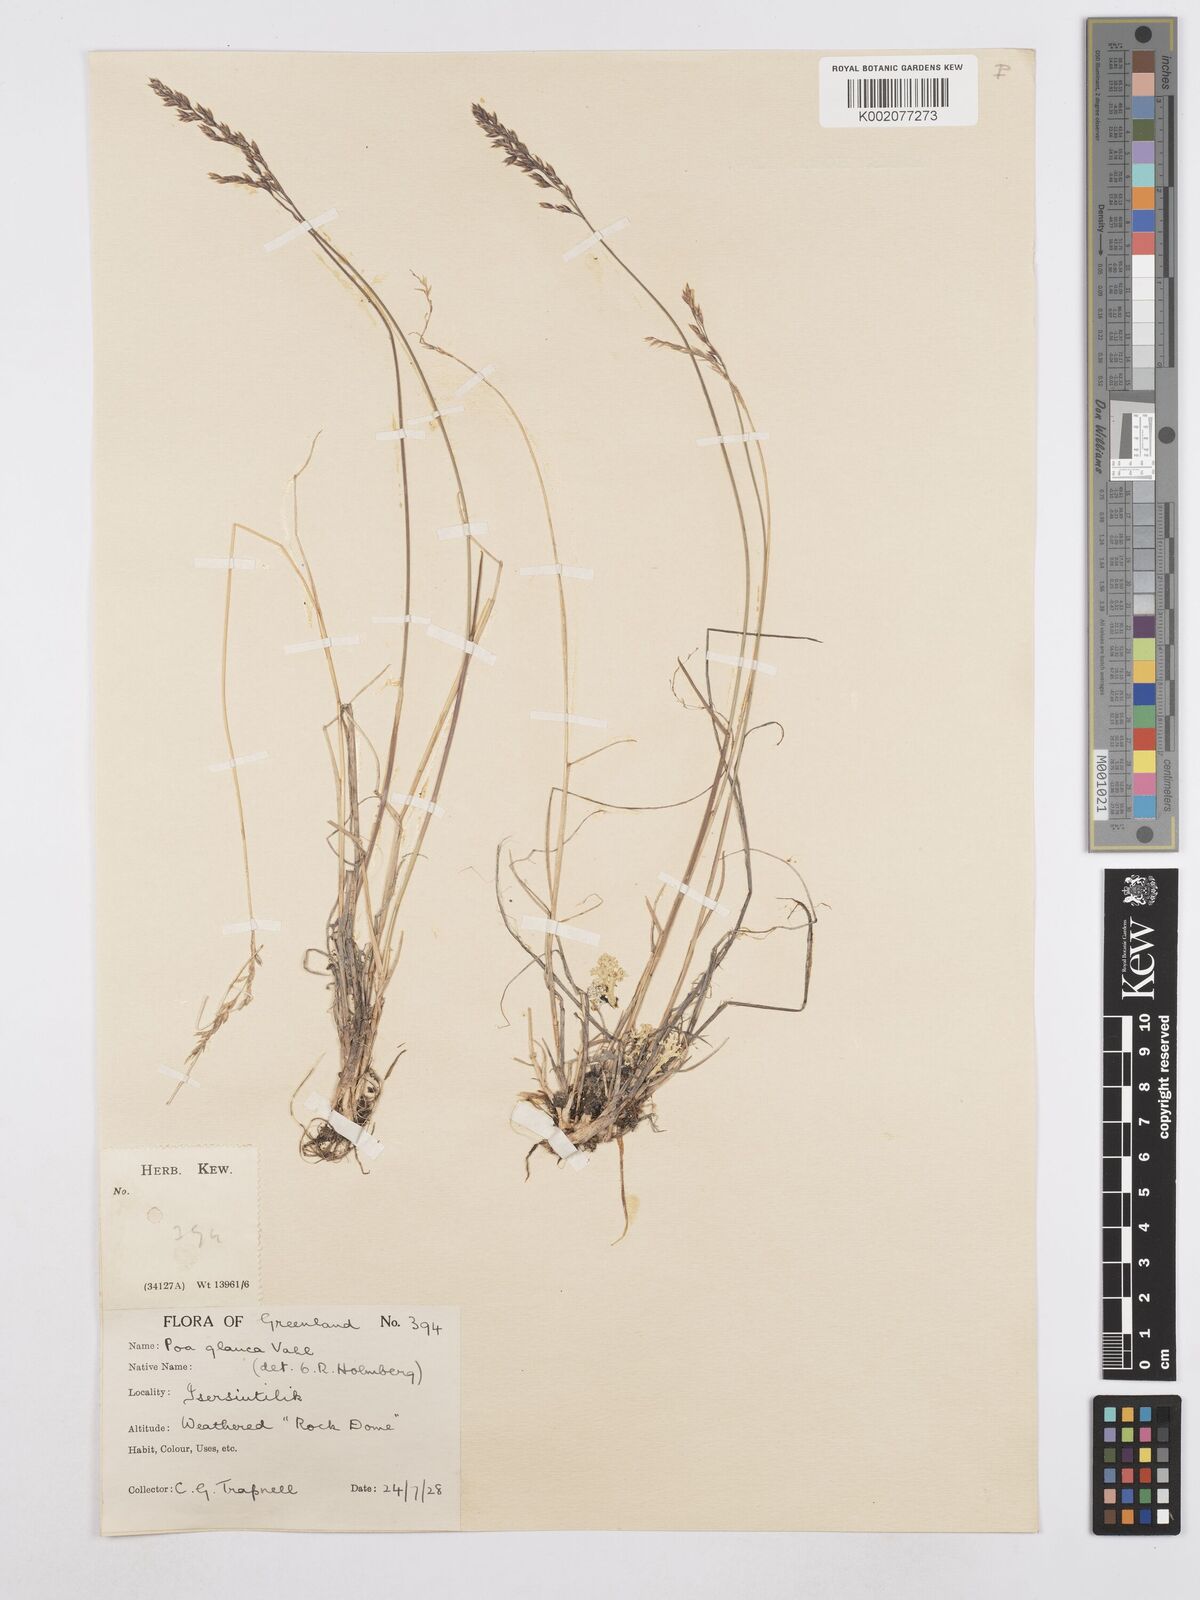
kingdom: Plantae
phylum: Tracheophyta
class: Liliopsida
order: Poales
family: Poaceae
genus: Poa
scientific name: Poa glauca
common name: Glaucous bluegrass
